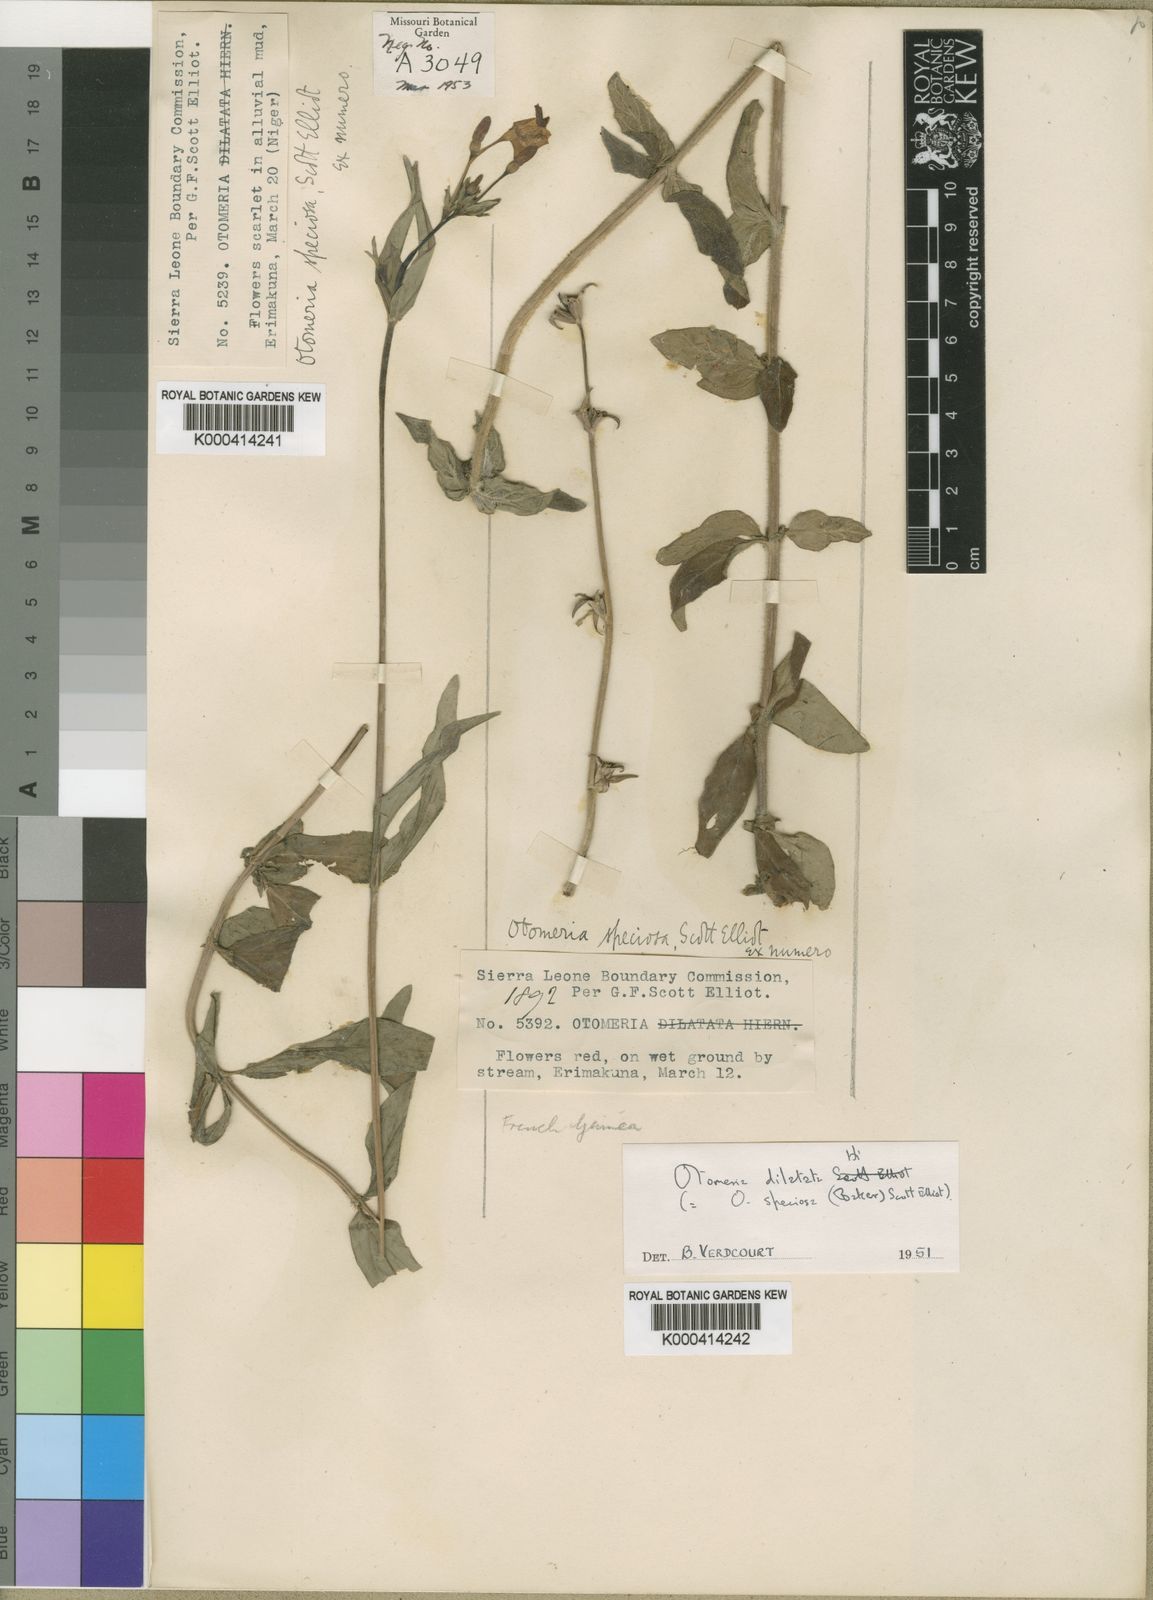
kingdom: Plantae
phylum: Tracheophyta
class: Magnoliopsida
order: Gentianales
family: Rubiaceae
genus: Otomeria
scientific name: Otomeria elatior
